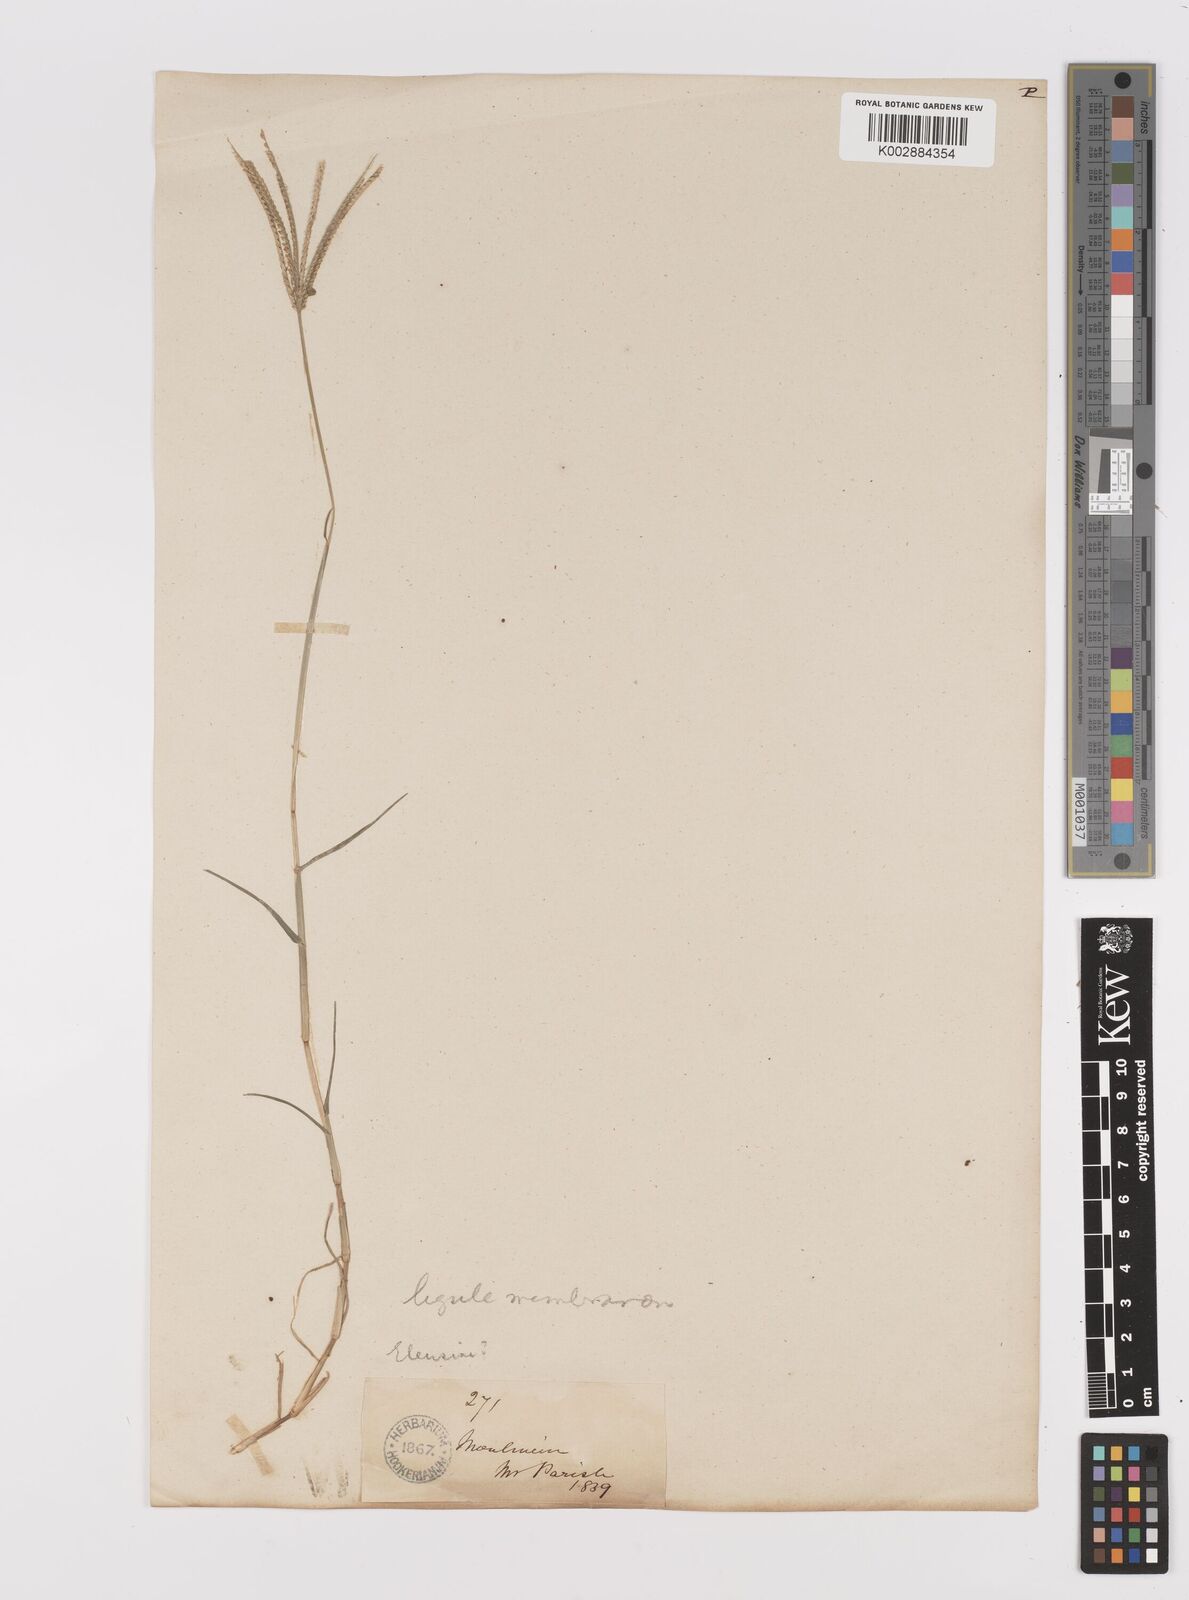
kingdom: Plantae
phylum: Tracheophyta
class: Liliopsida
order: Poales
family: Poaceae
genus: Cynodon
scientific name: Cynodon dactylon
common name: Bermuda grass
